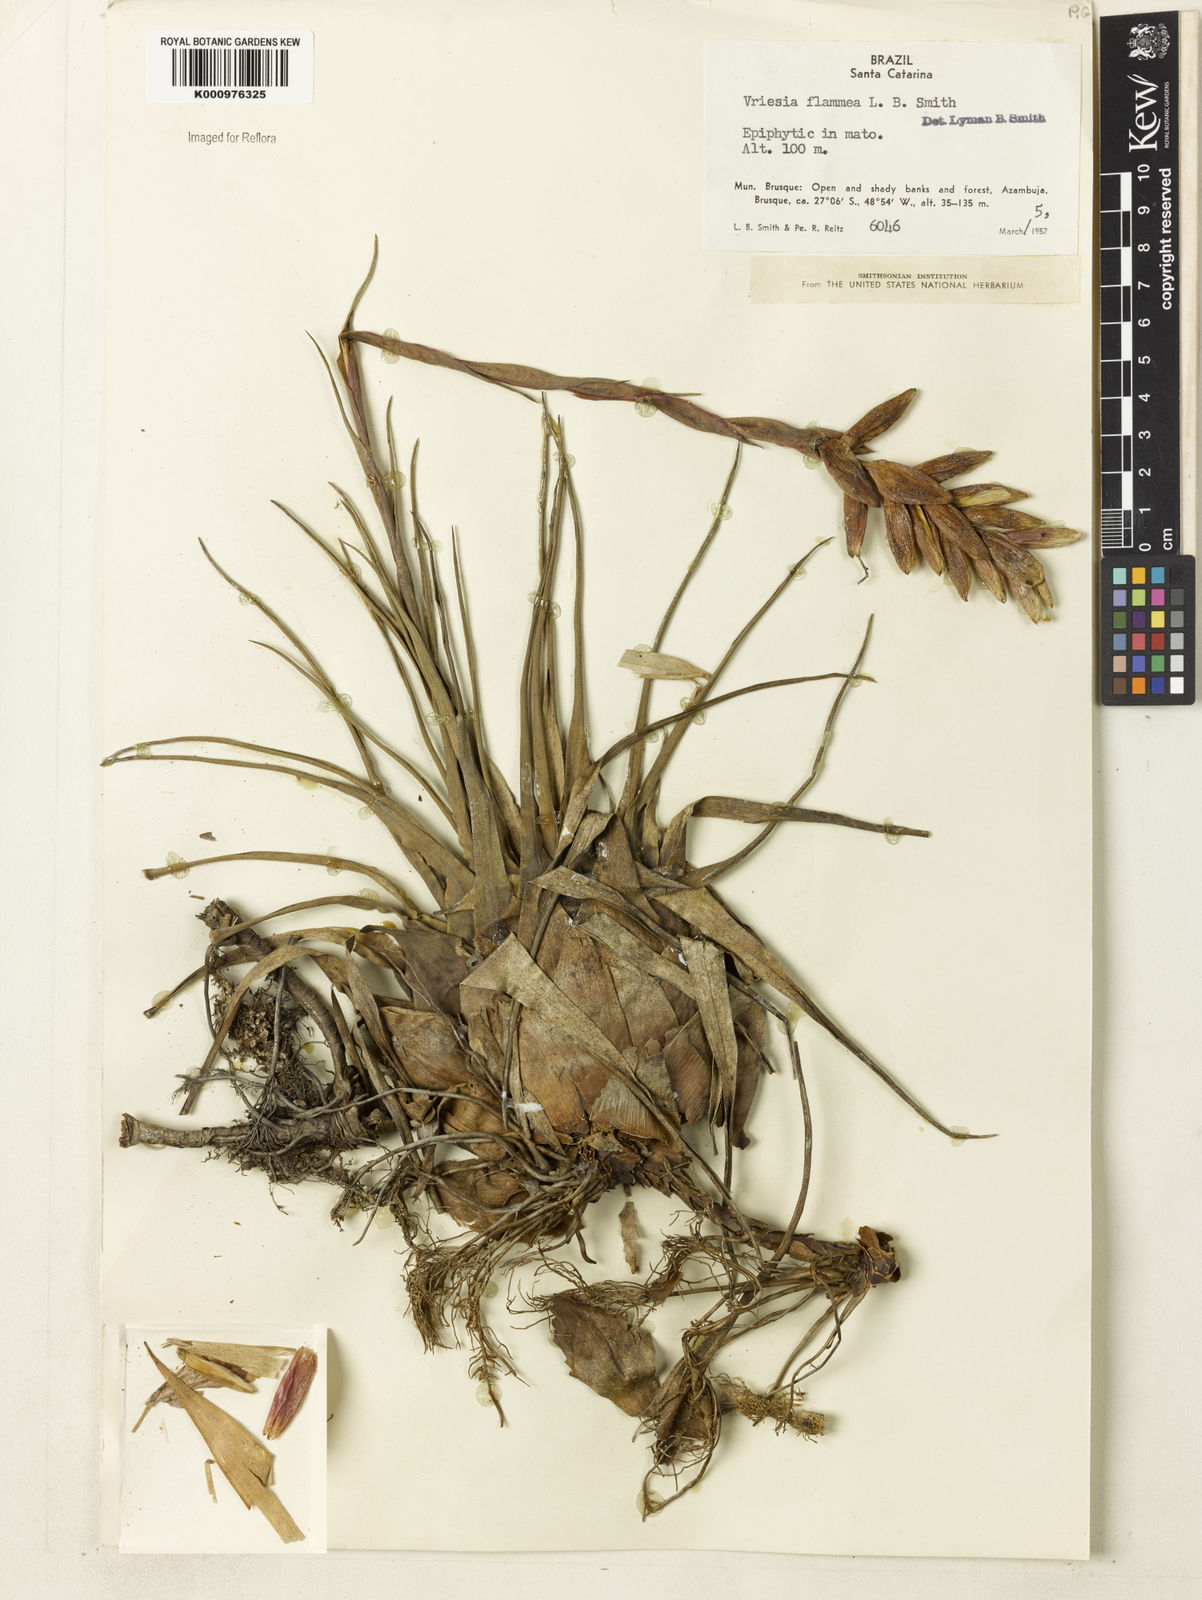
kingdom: Plantae
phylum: Tracheophyta
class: Liliopsida
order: Poales
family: Bromeliaceae
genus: Vriesea
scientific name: Vriesea flammea
